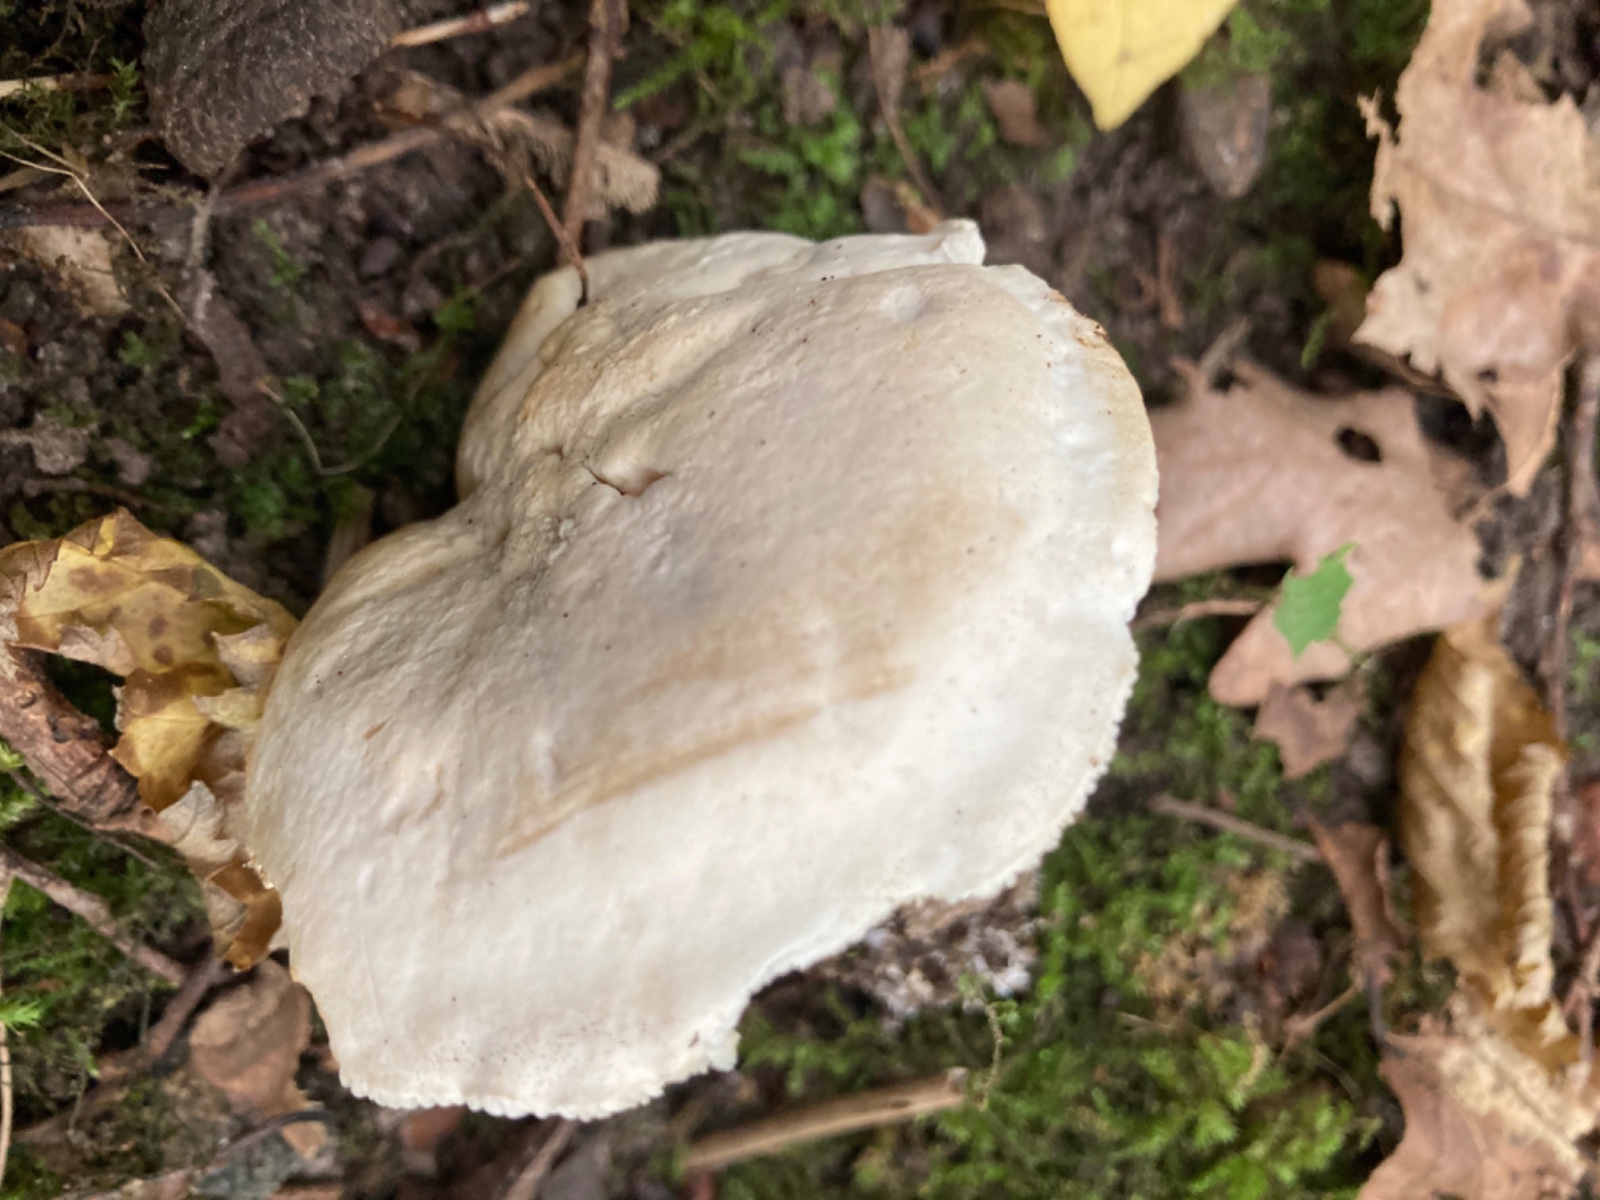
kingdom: Fungi
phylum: Basidiomycota
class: Agaricomycetes
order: Agaricales
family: Tricholomataceae
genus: Tricholoma
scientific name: Tricholoma
